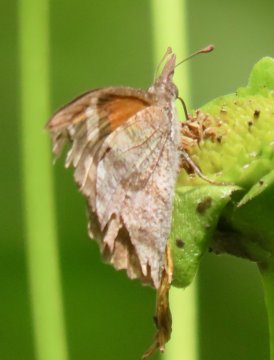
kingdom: Animalia
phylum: Arthropoda
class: Insecta
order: Lepidoptera
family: Nymphalidae
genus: Libytheana
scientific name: Libytheana carinenta
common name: American Snout
